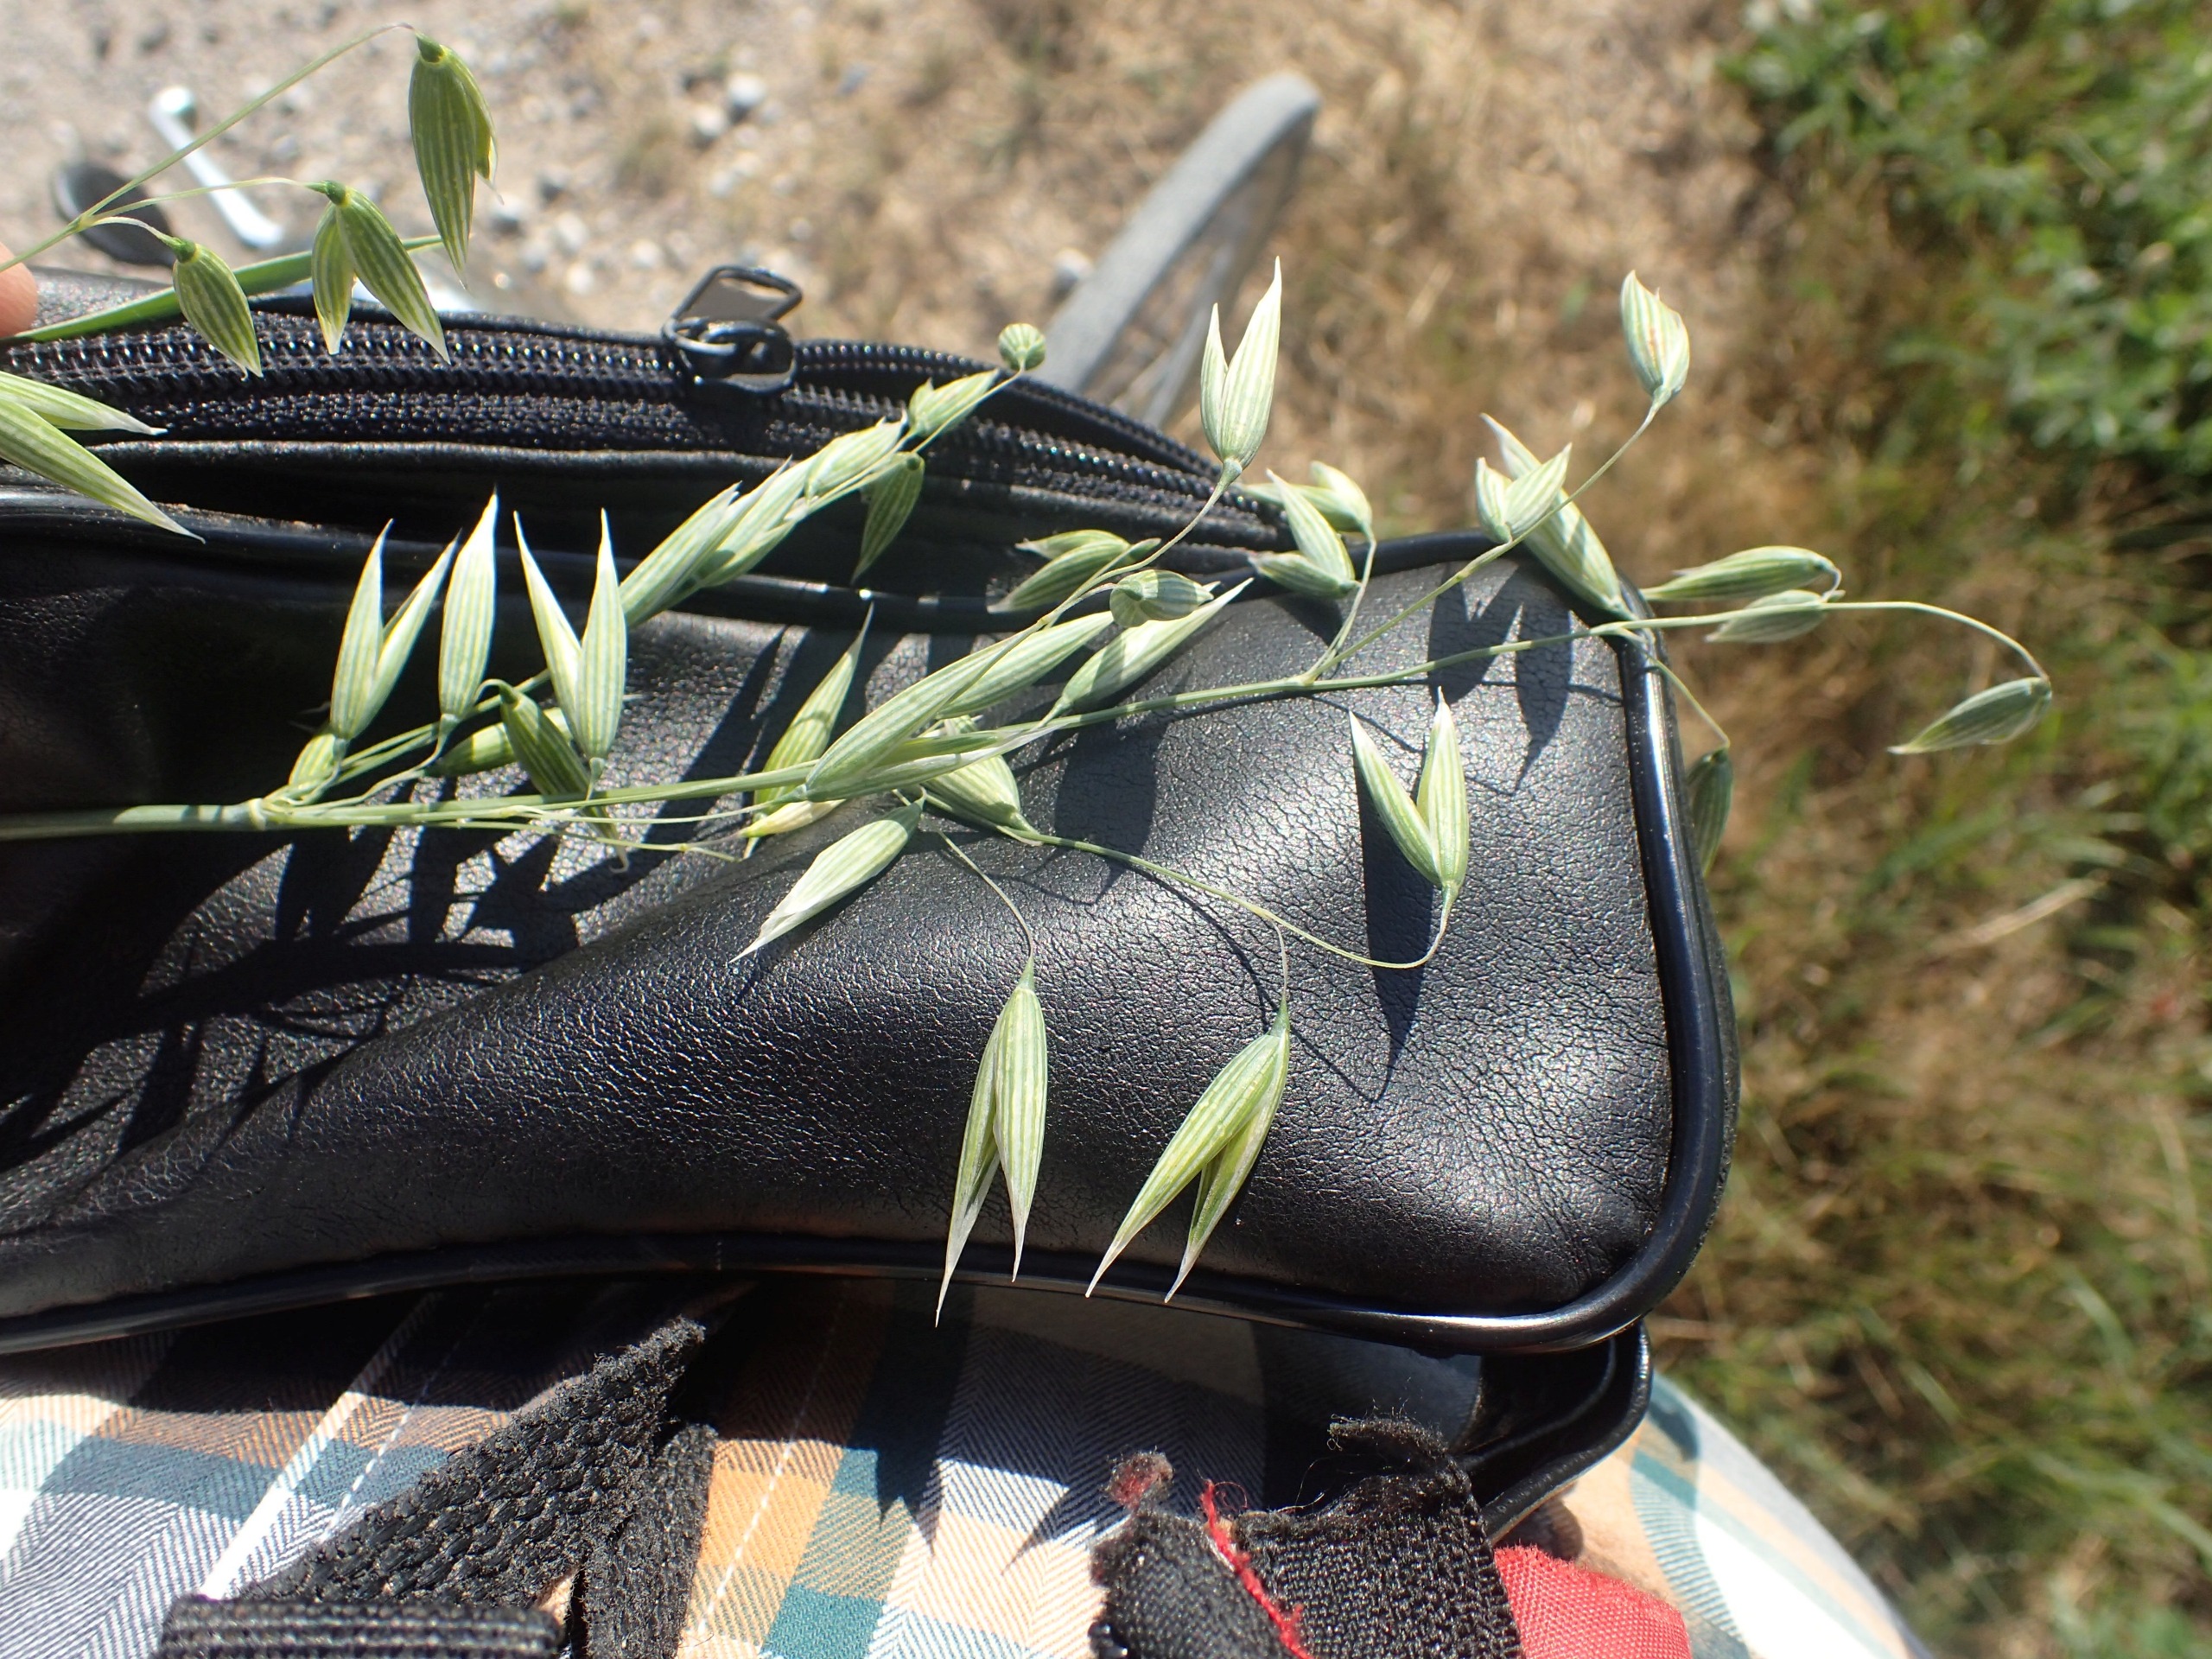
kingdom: Plantae
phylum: Tracheophyta
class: Liliopsida
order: Poales
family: Poaceae
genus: Avena
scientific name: Avena sativa
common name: Almindelig havre
